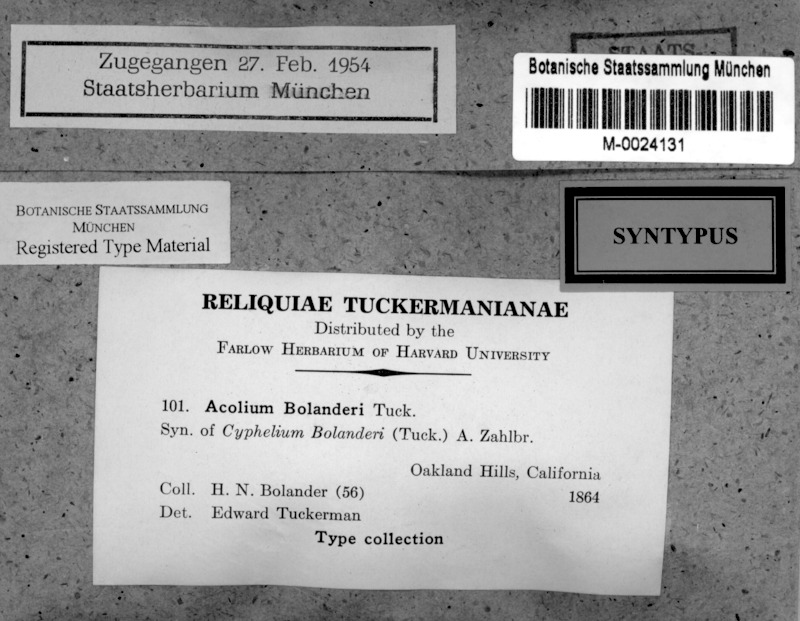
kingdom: Fungi
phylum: Ascomycota
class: Lecanoromycetes
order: Caliciales
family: Caliciaceae
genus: Thelomma
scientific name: Thelomma mammosum
